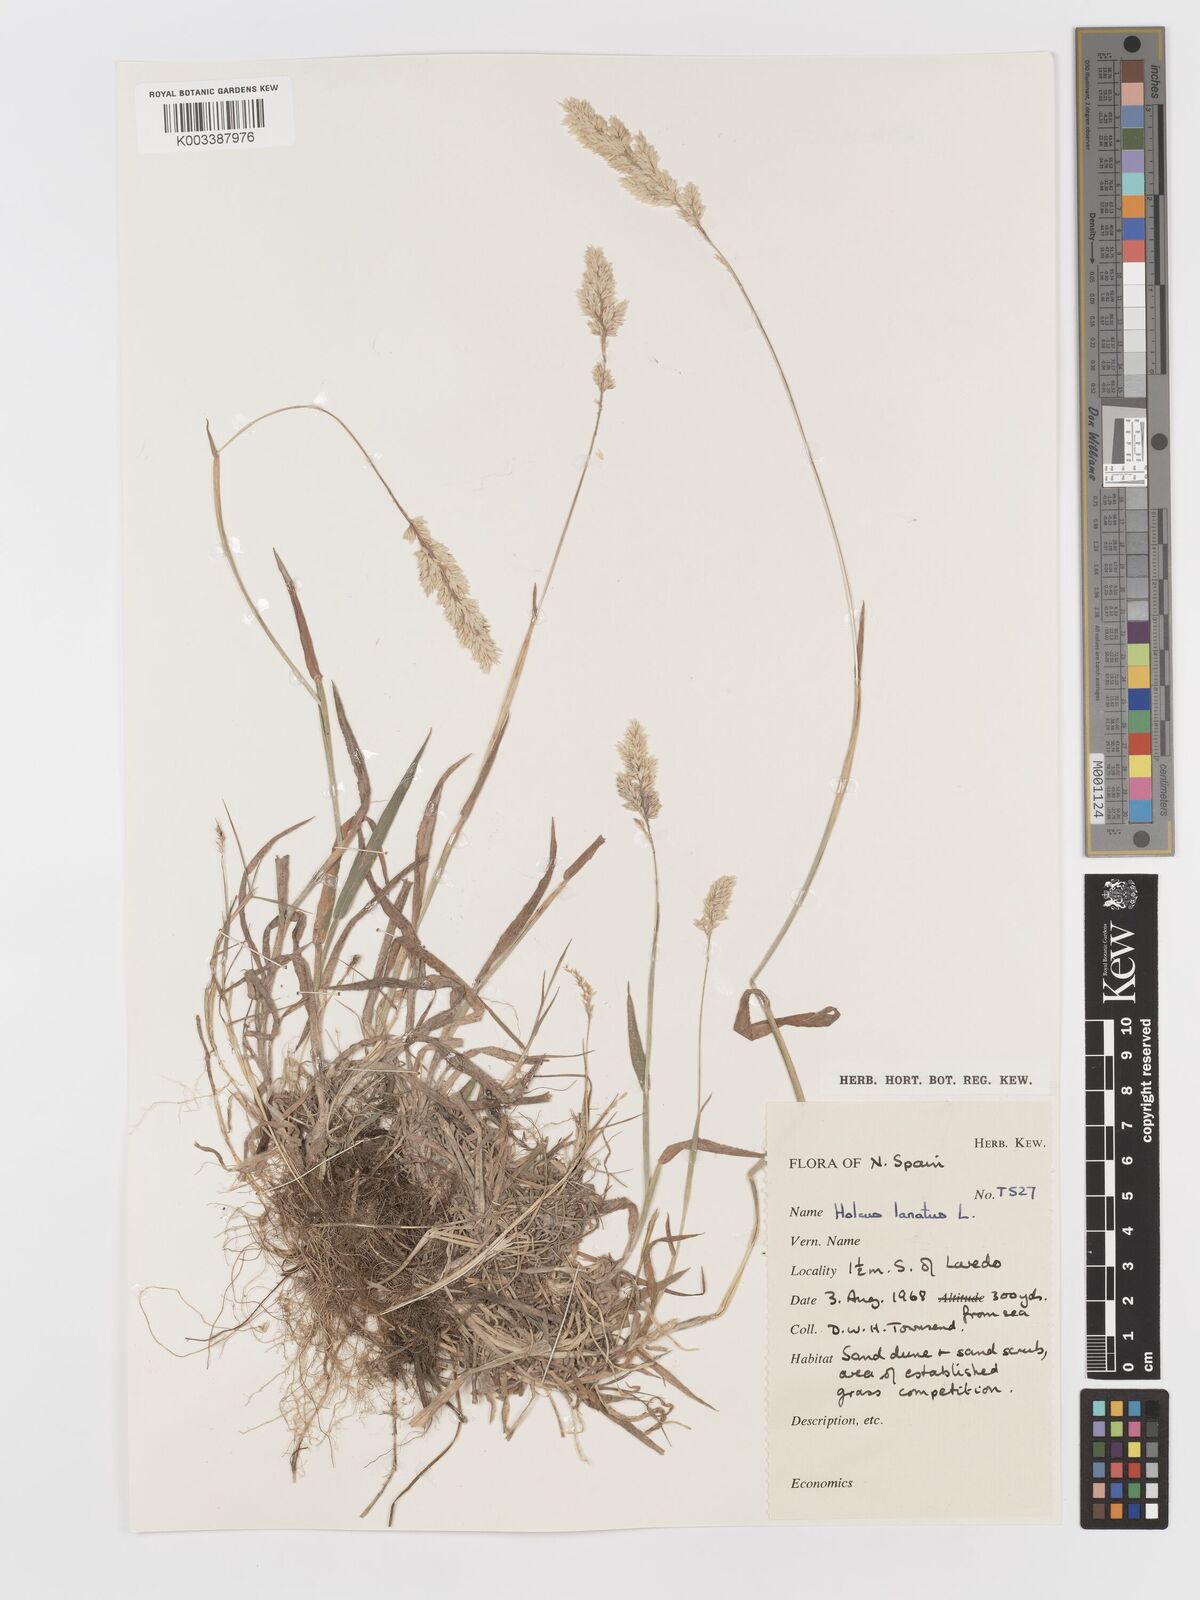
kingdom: Plantae
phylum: Tracheophyta
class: Liliopsida
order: Poales
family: Poaceae
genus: Holcus
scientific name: Holcus lanatus
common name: Yorkshire-fog
